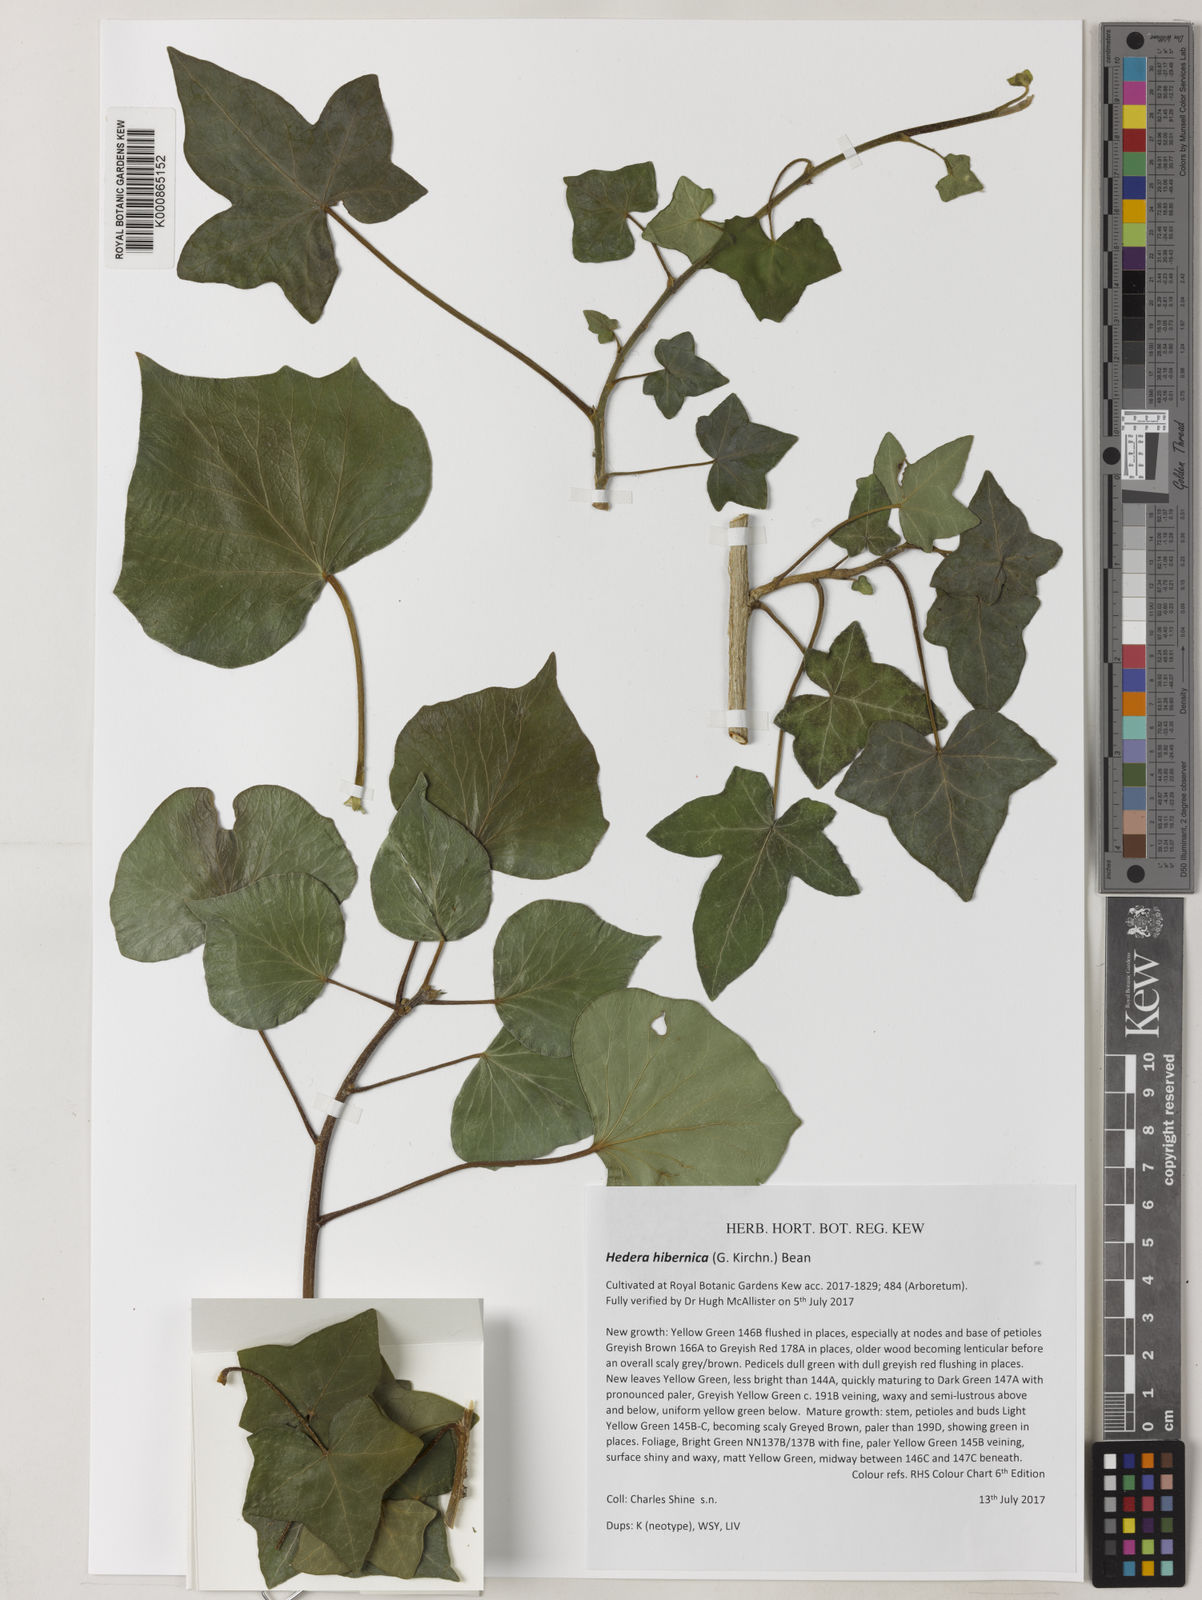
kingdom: Plantae
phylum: Tracheophyta
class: Magnoliopsida
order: Apiales
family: Araliaceae
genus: Hedera
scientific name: Hedera
